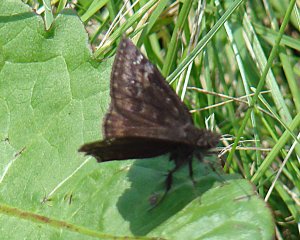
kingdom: Animalia
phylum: Arthropoda
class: Insecta
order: Lepidoptera
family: Hesperiidae
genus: Gesta
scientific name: Gesta
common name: Wild Indigo Duskywing
